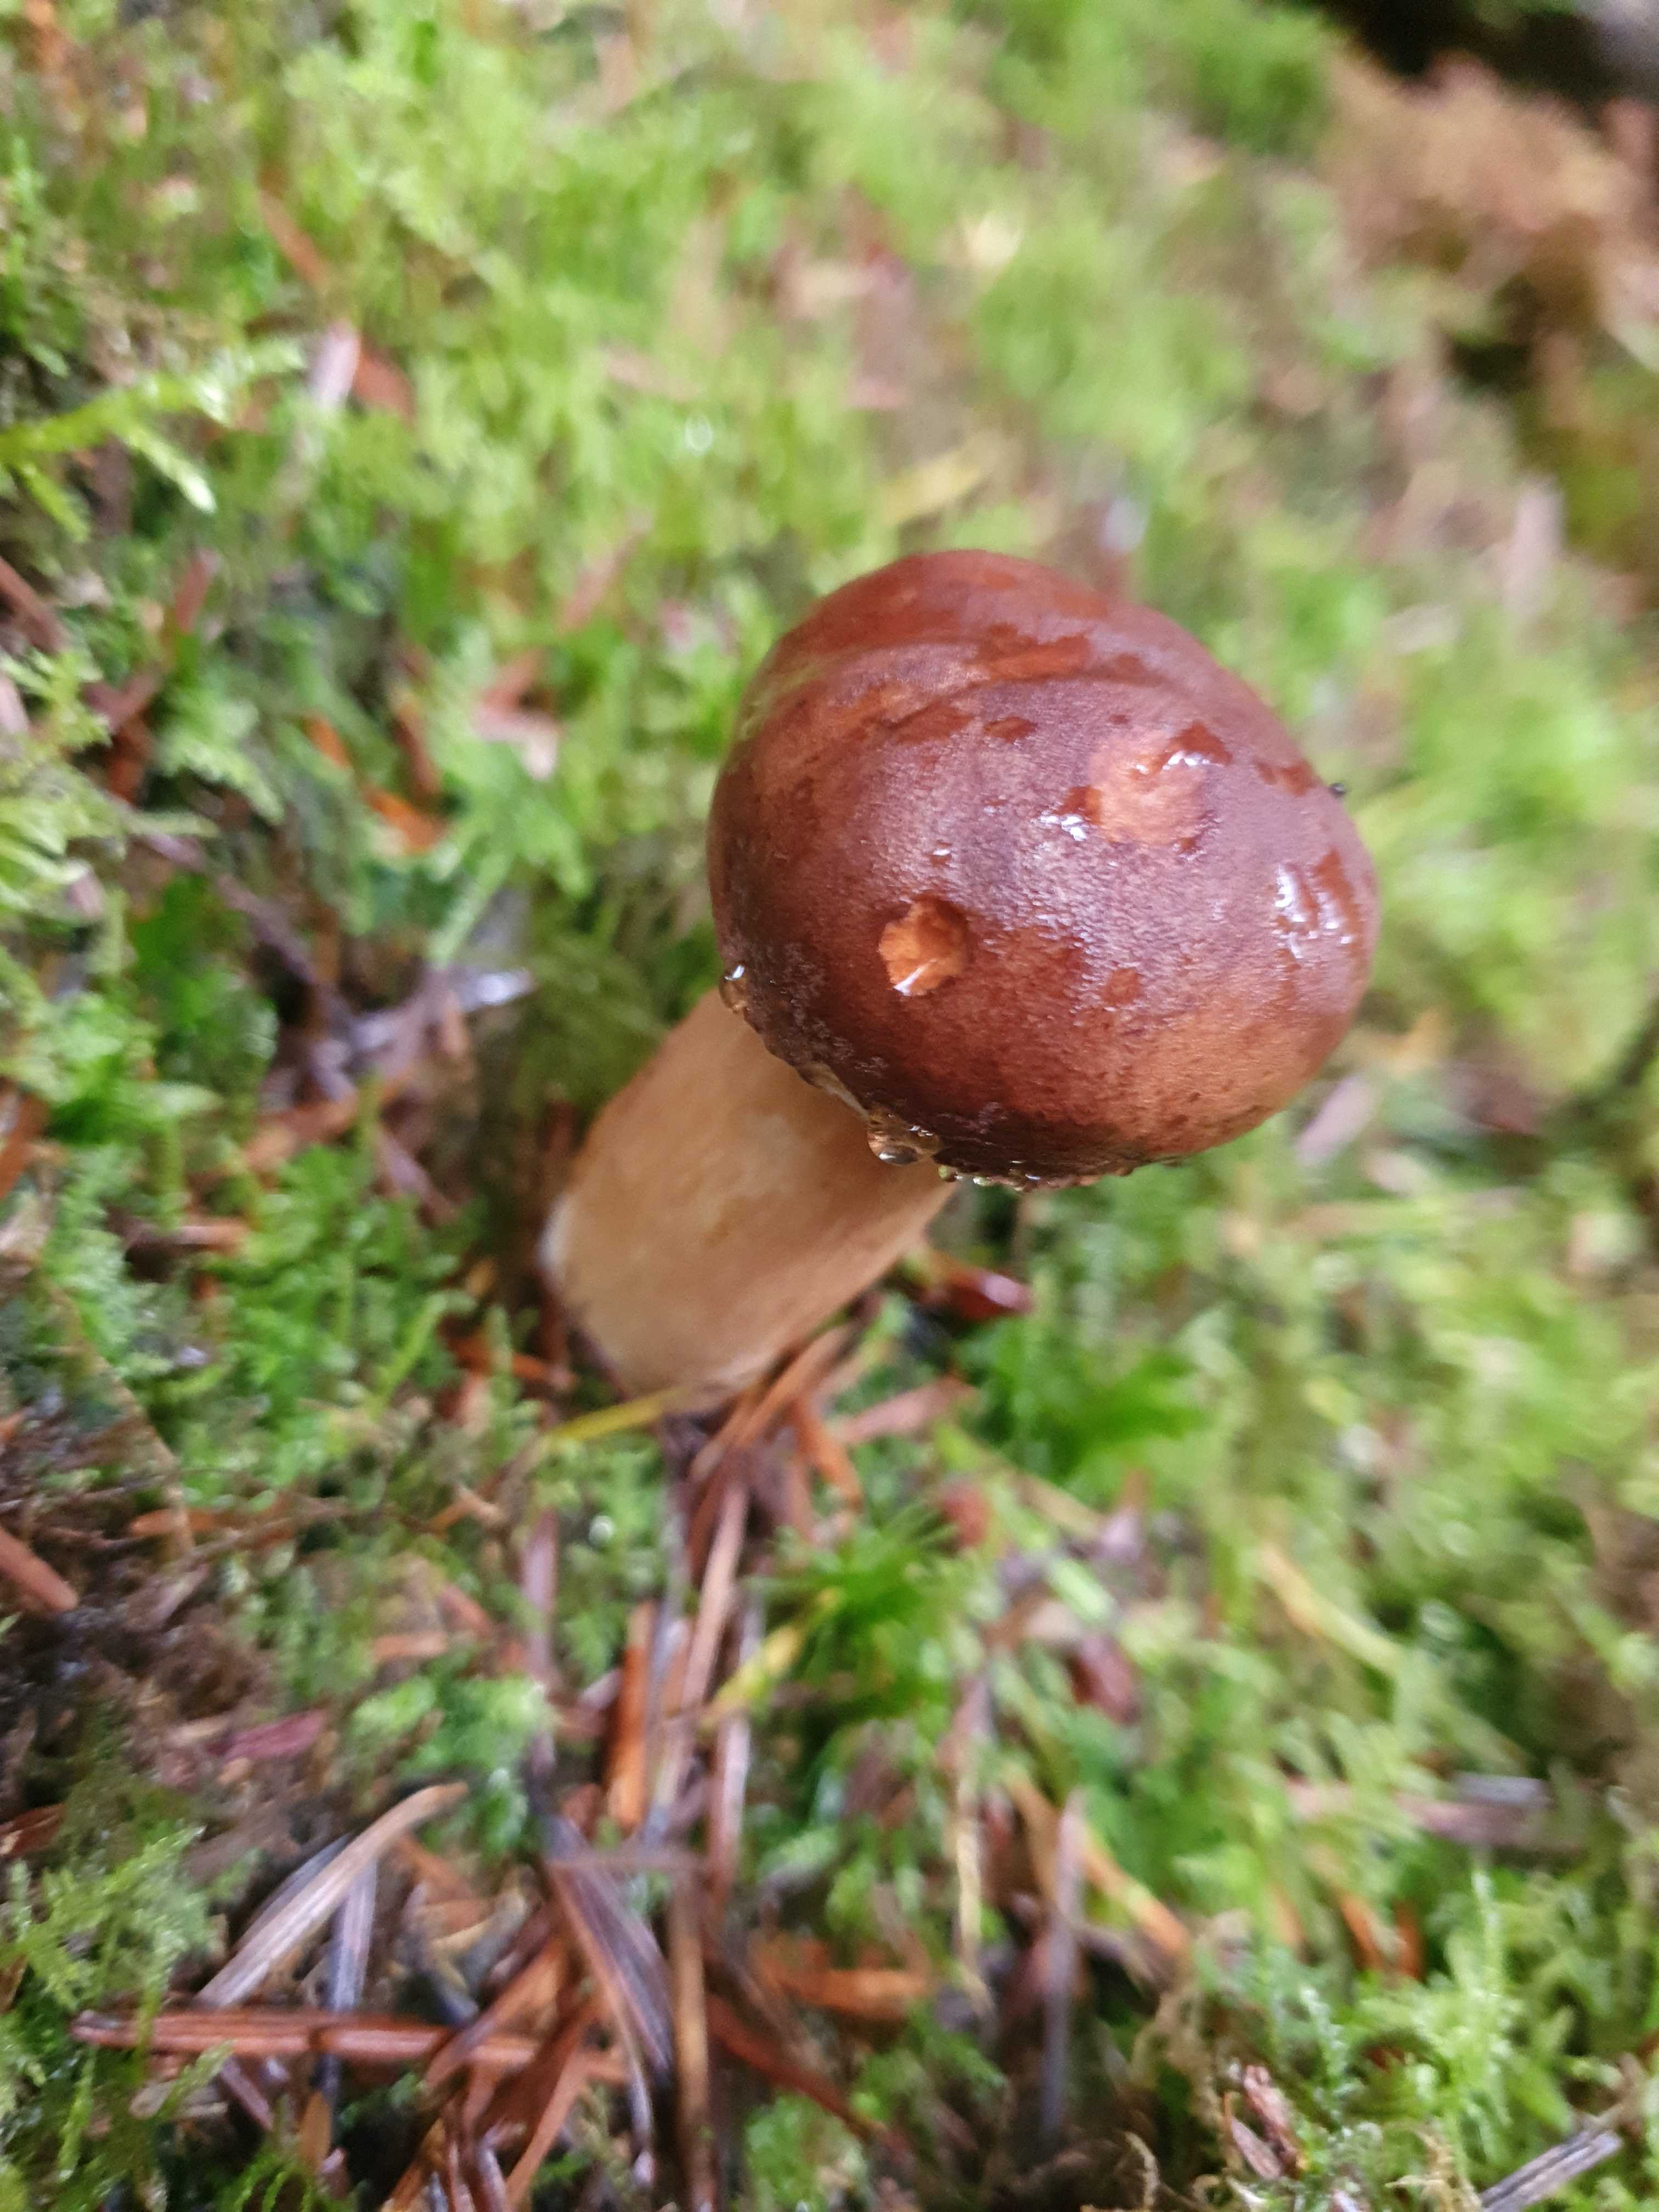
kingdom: Fungi
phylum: Basidiomycota
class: Agaricomycetes
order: Boletales
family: Boletaceae
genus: Imleria
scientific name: Imleria badia
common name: brunstokket rørhat
